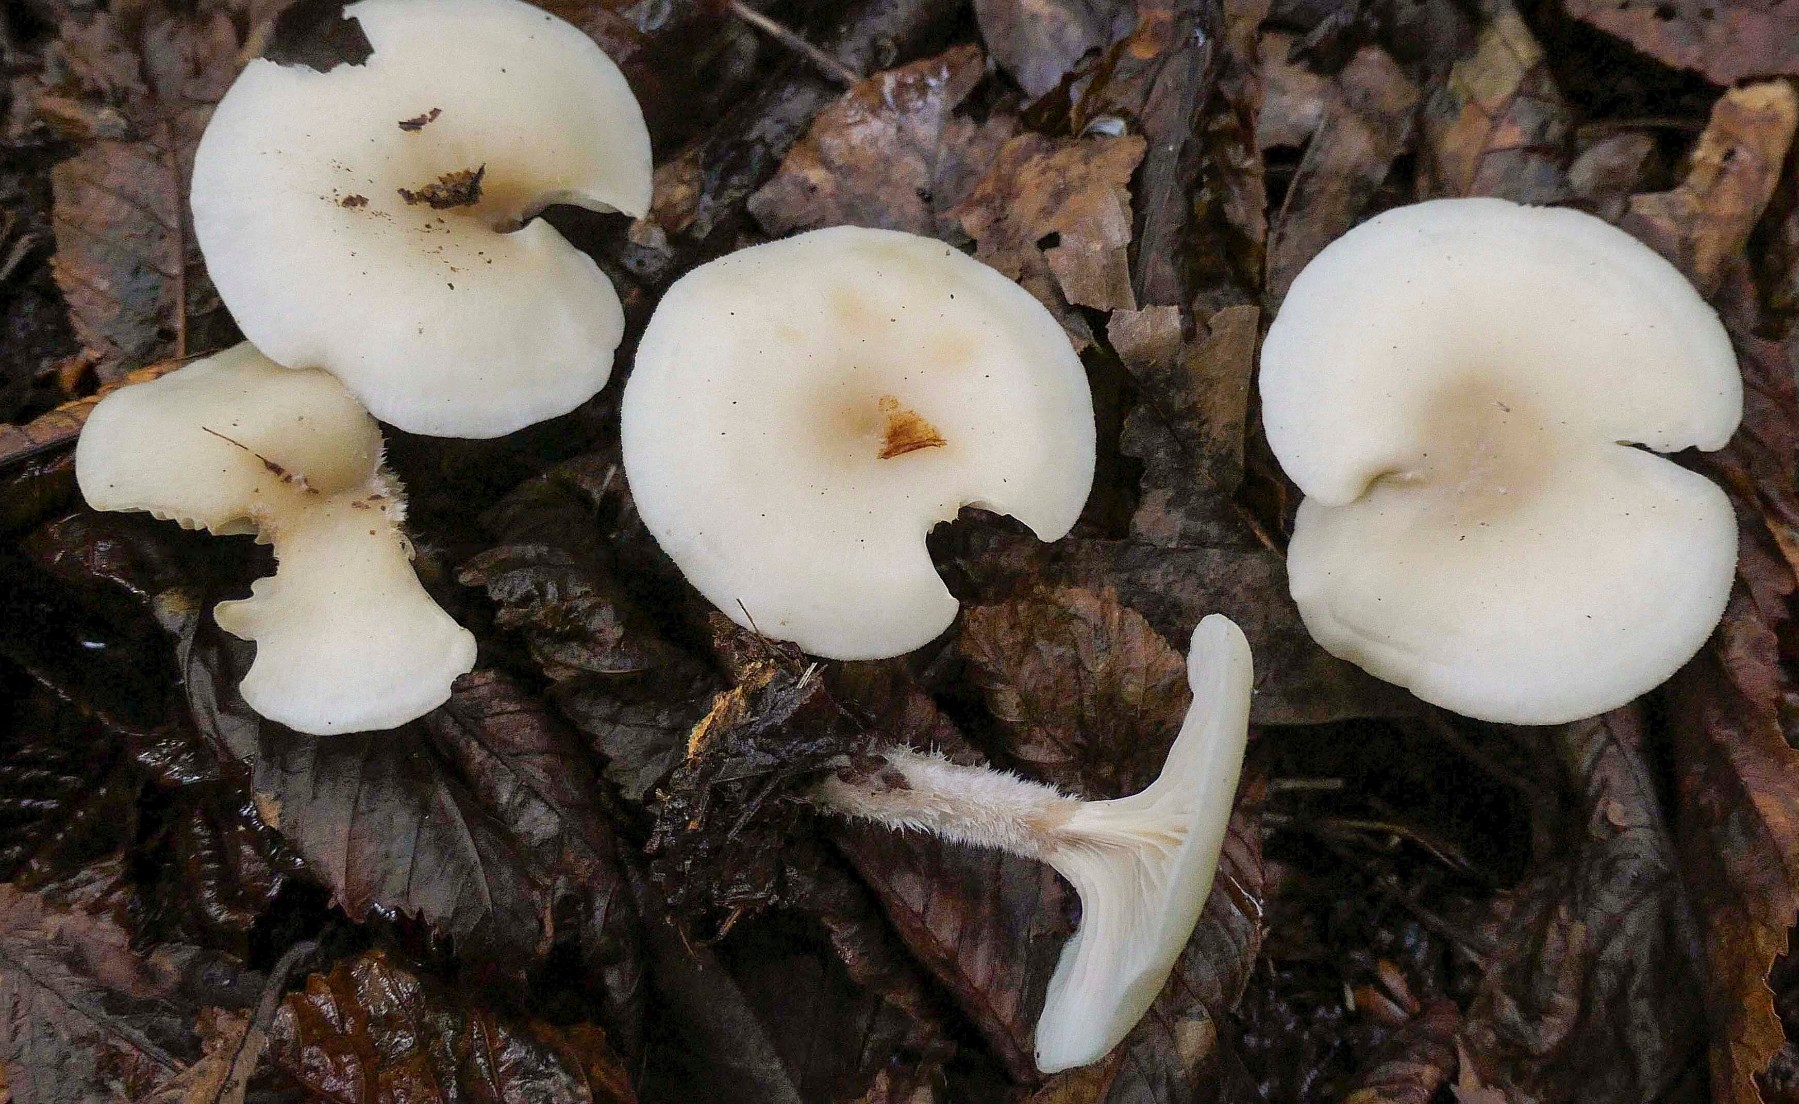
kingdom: Fungi
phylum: Basidiomycota
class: Agaricomycetes
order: Agaricales
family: Tricholomataceae
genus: Clitocybe
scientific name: Clitocybe phaeophthalma
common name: stinkende tragthat
